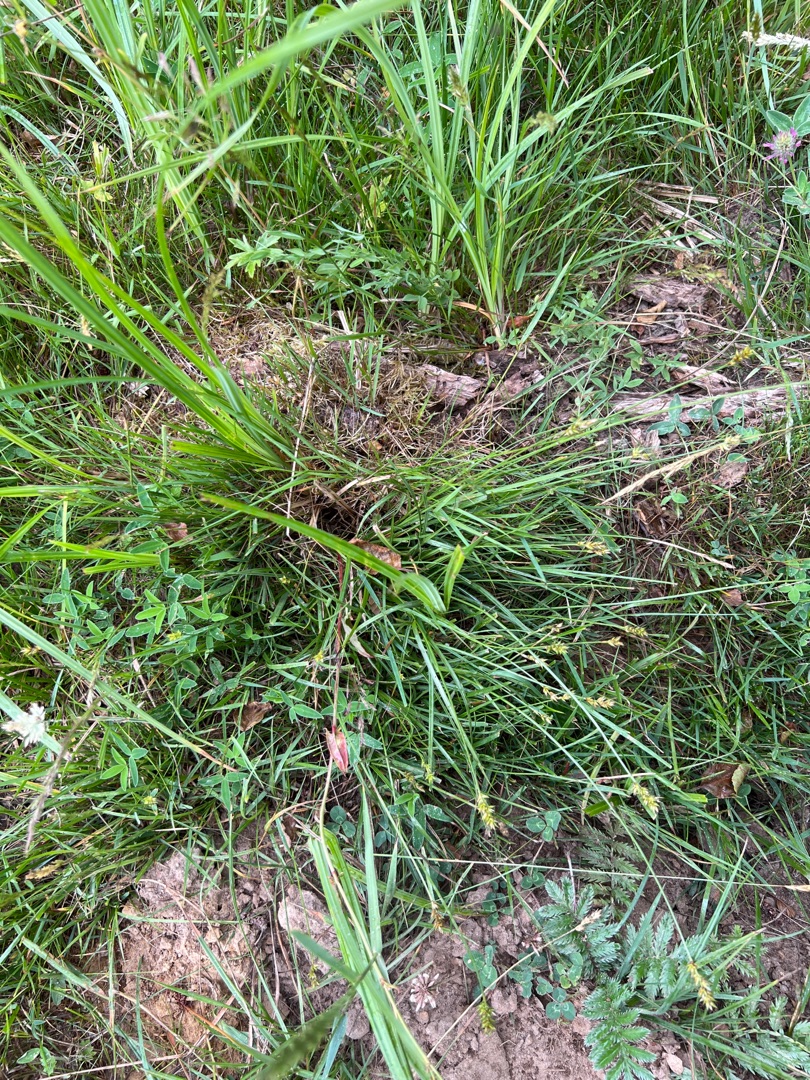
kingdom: Plantae
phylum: Tracheophyta
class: Liliopsida
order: Poales
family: Cyperaceae
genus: Carex
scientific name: Carex spicata
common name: Spidskapslet star
